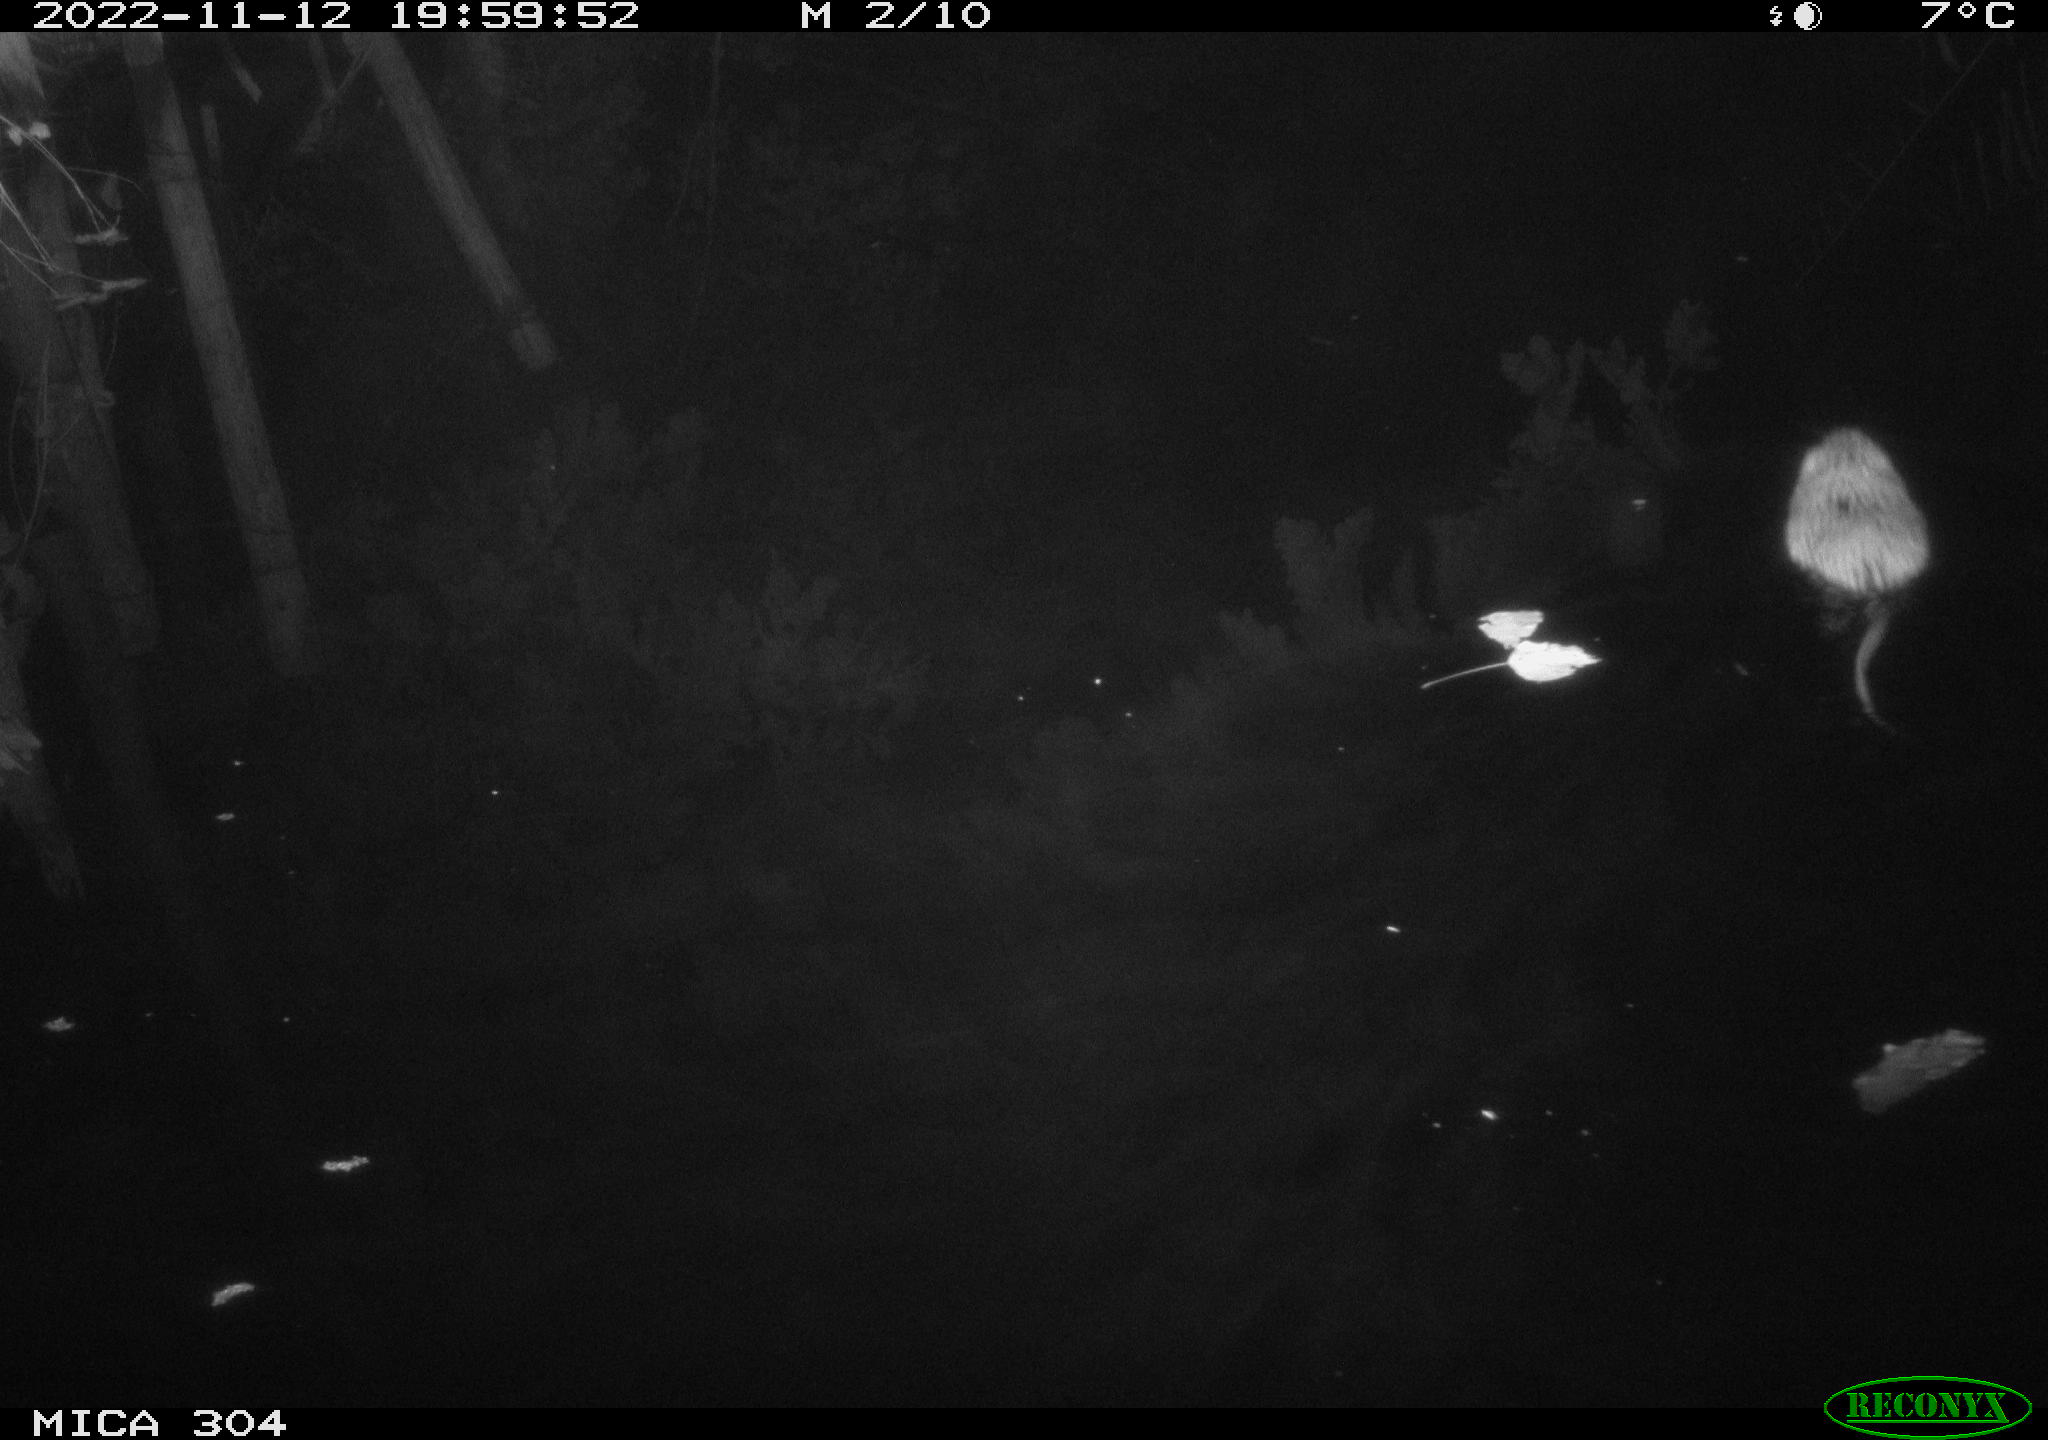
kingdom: Animalia
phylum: Chordata
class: Mammalia
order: Rodentia
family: Cricetidae
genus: Ondatra
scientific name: Ondatra zibethicus
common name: Muskrat
